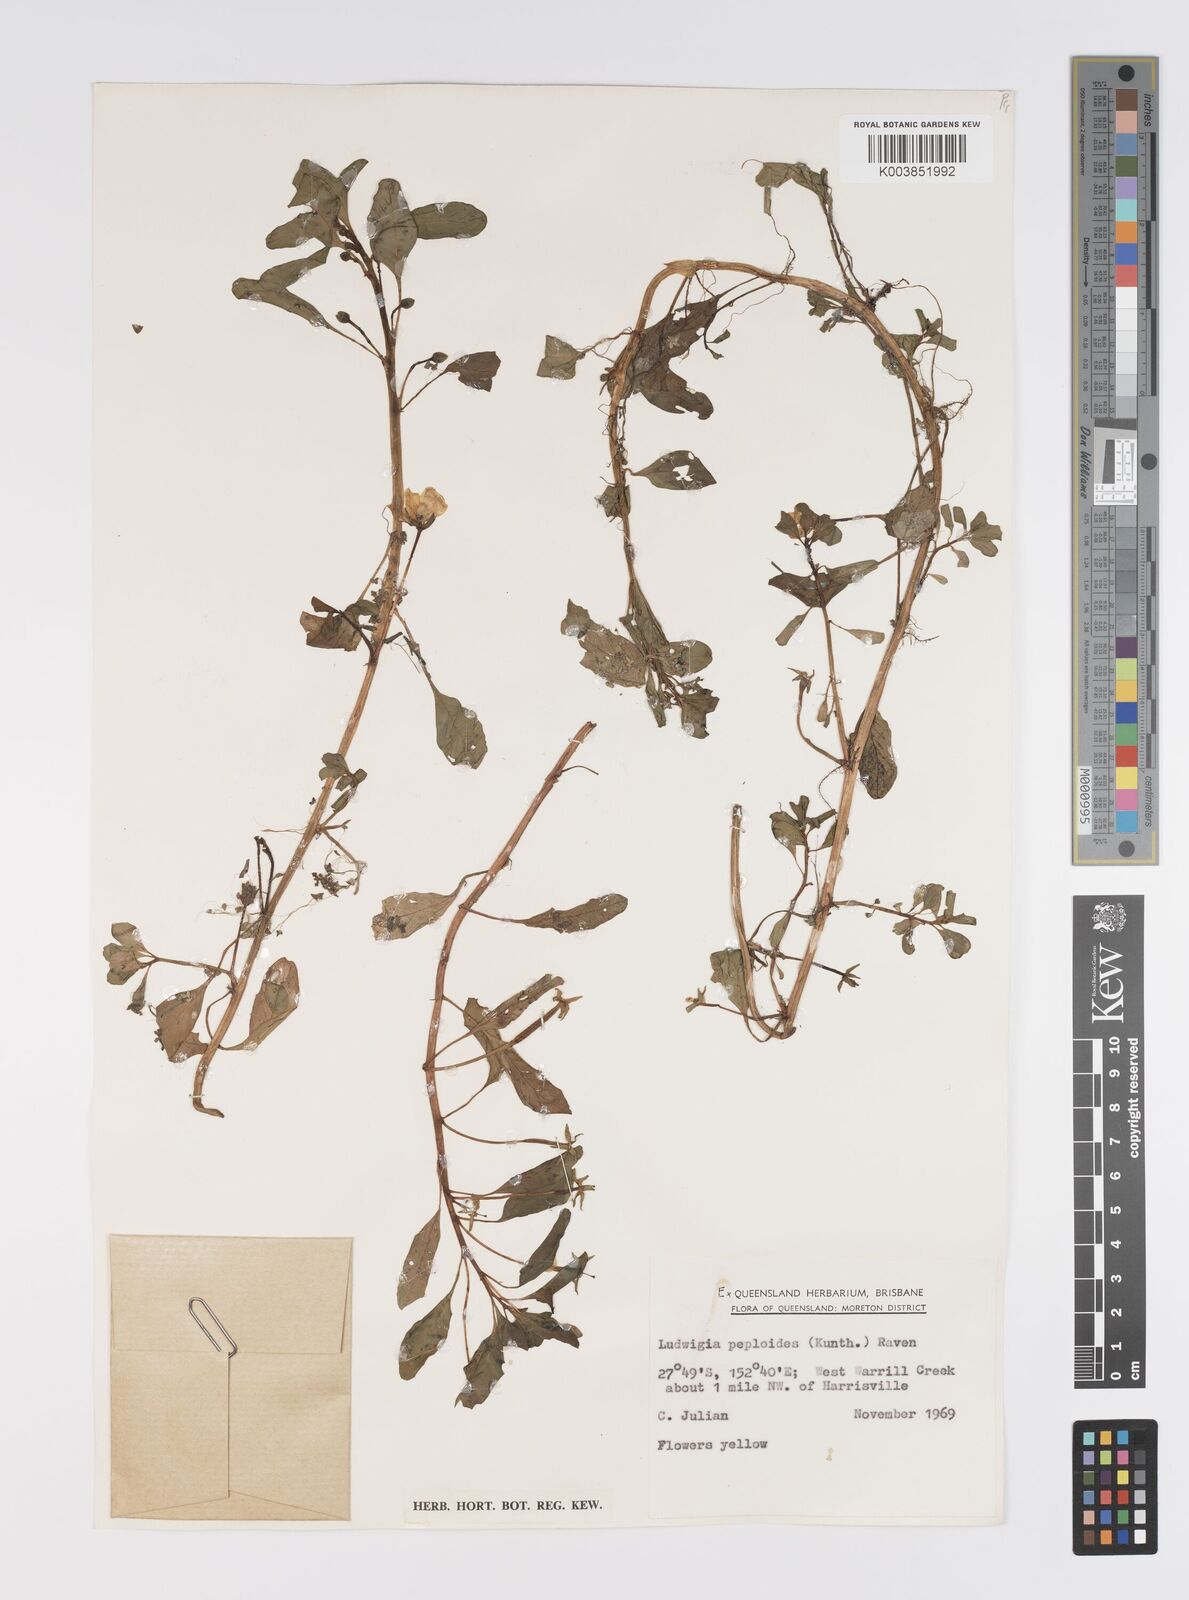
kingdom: Plantae
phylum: Tracheophyta
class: Magnoliopsida
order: Myrtales
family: Onagraceae
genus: Ludwigia
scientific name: Ludwigia peploides
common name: Floating primrose-willow
